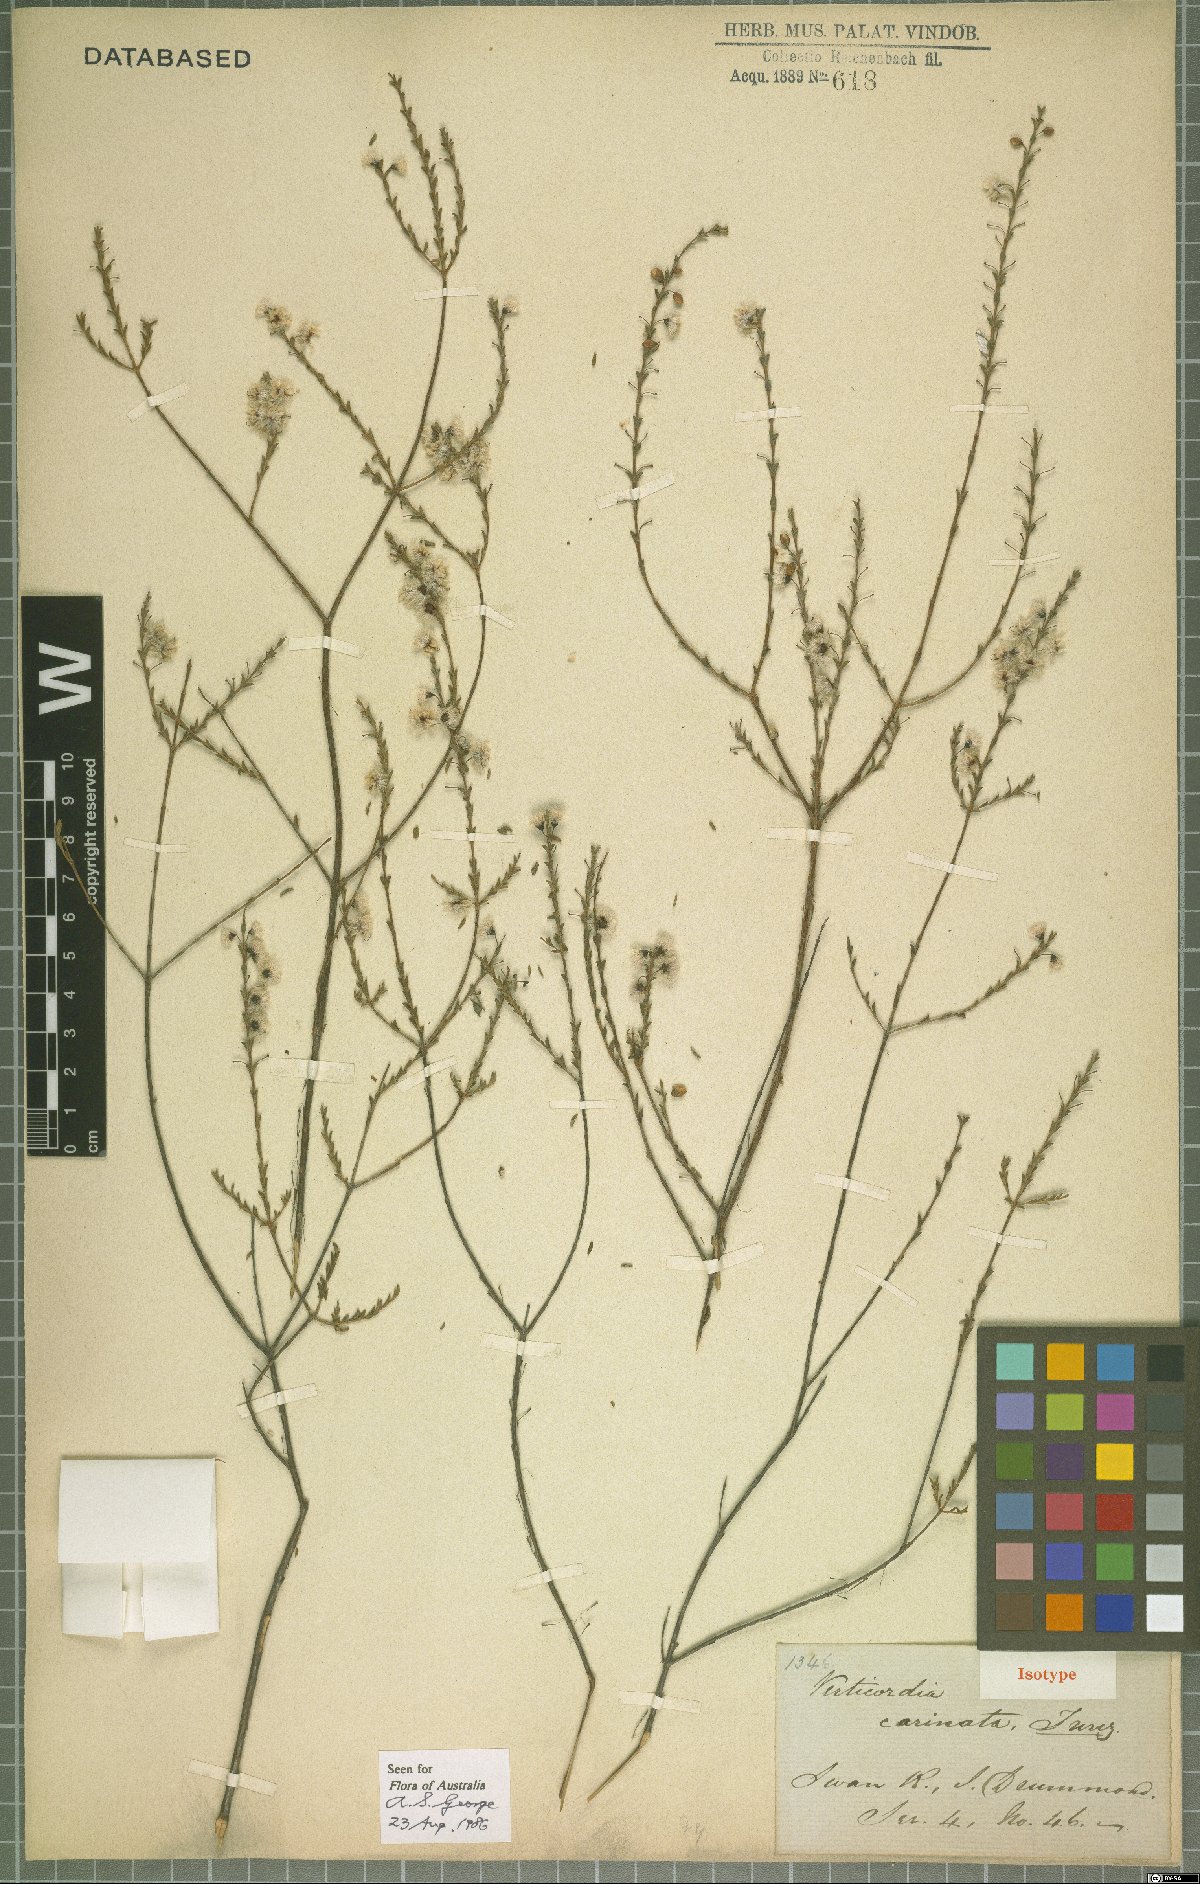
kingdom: Plantae
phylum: Tracheophyta
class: Magnoliopsida
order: Myrtales
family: Myrtaceae
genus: Verticordia
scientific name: Verticordia carinata
